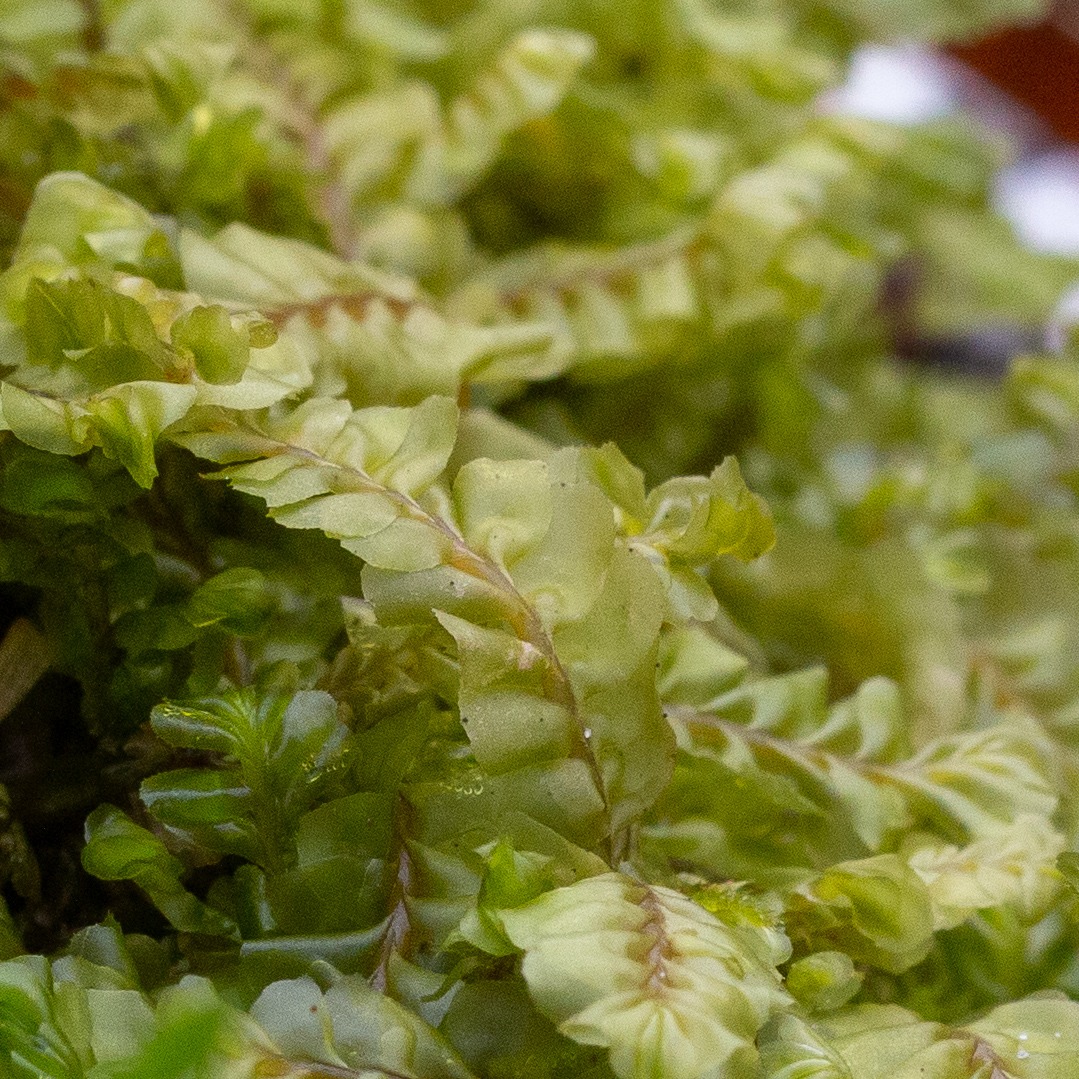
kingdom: Plantae
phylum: Marchantiophyta
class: Jungermanniopsida
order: Jungermanniales
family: Plagiochilaceae
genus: Plagiochila
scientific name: Plagiochila asplenioides
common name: Radeløv-hindeblad
